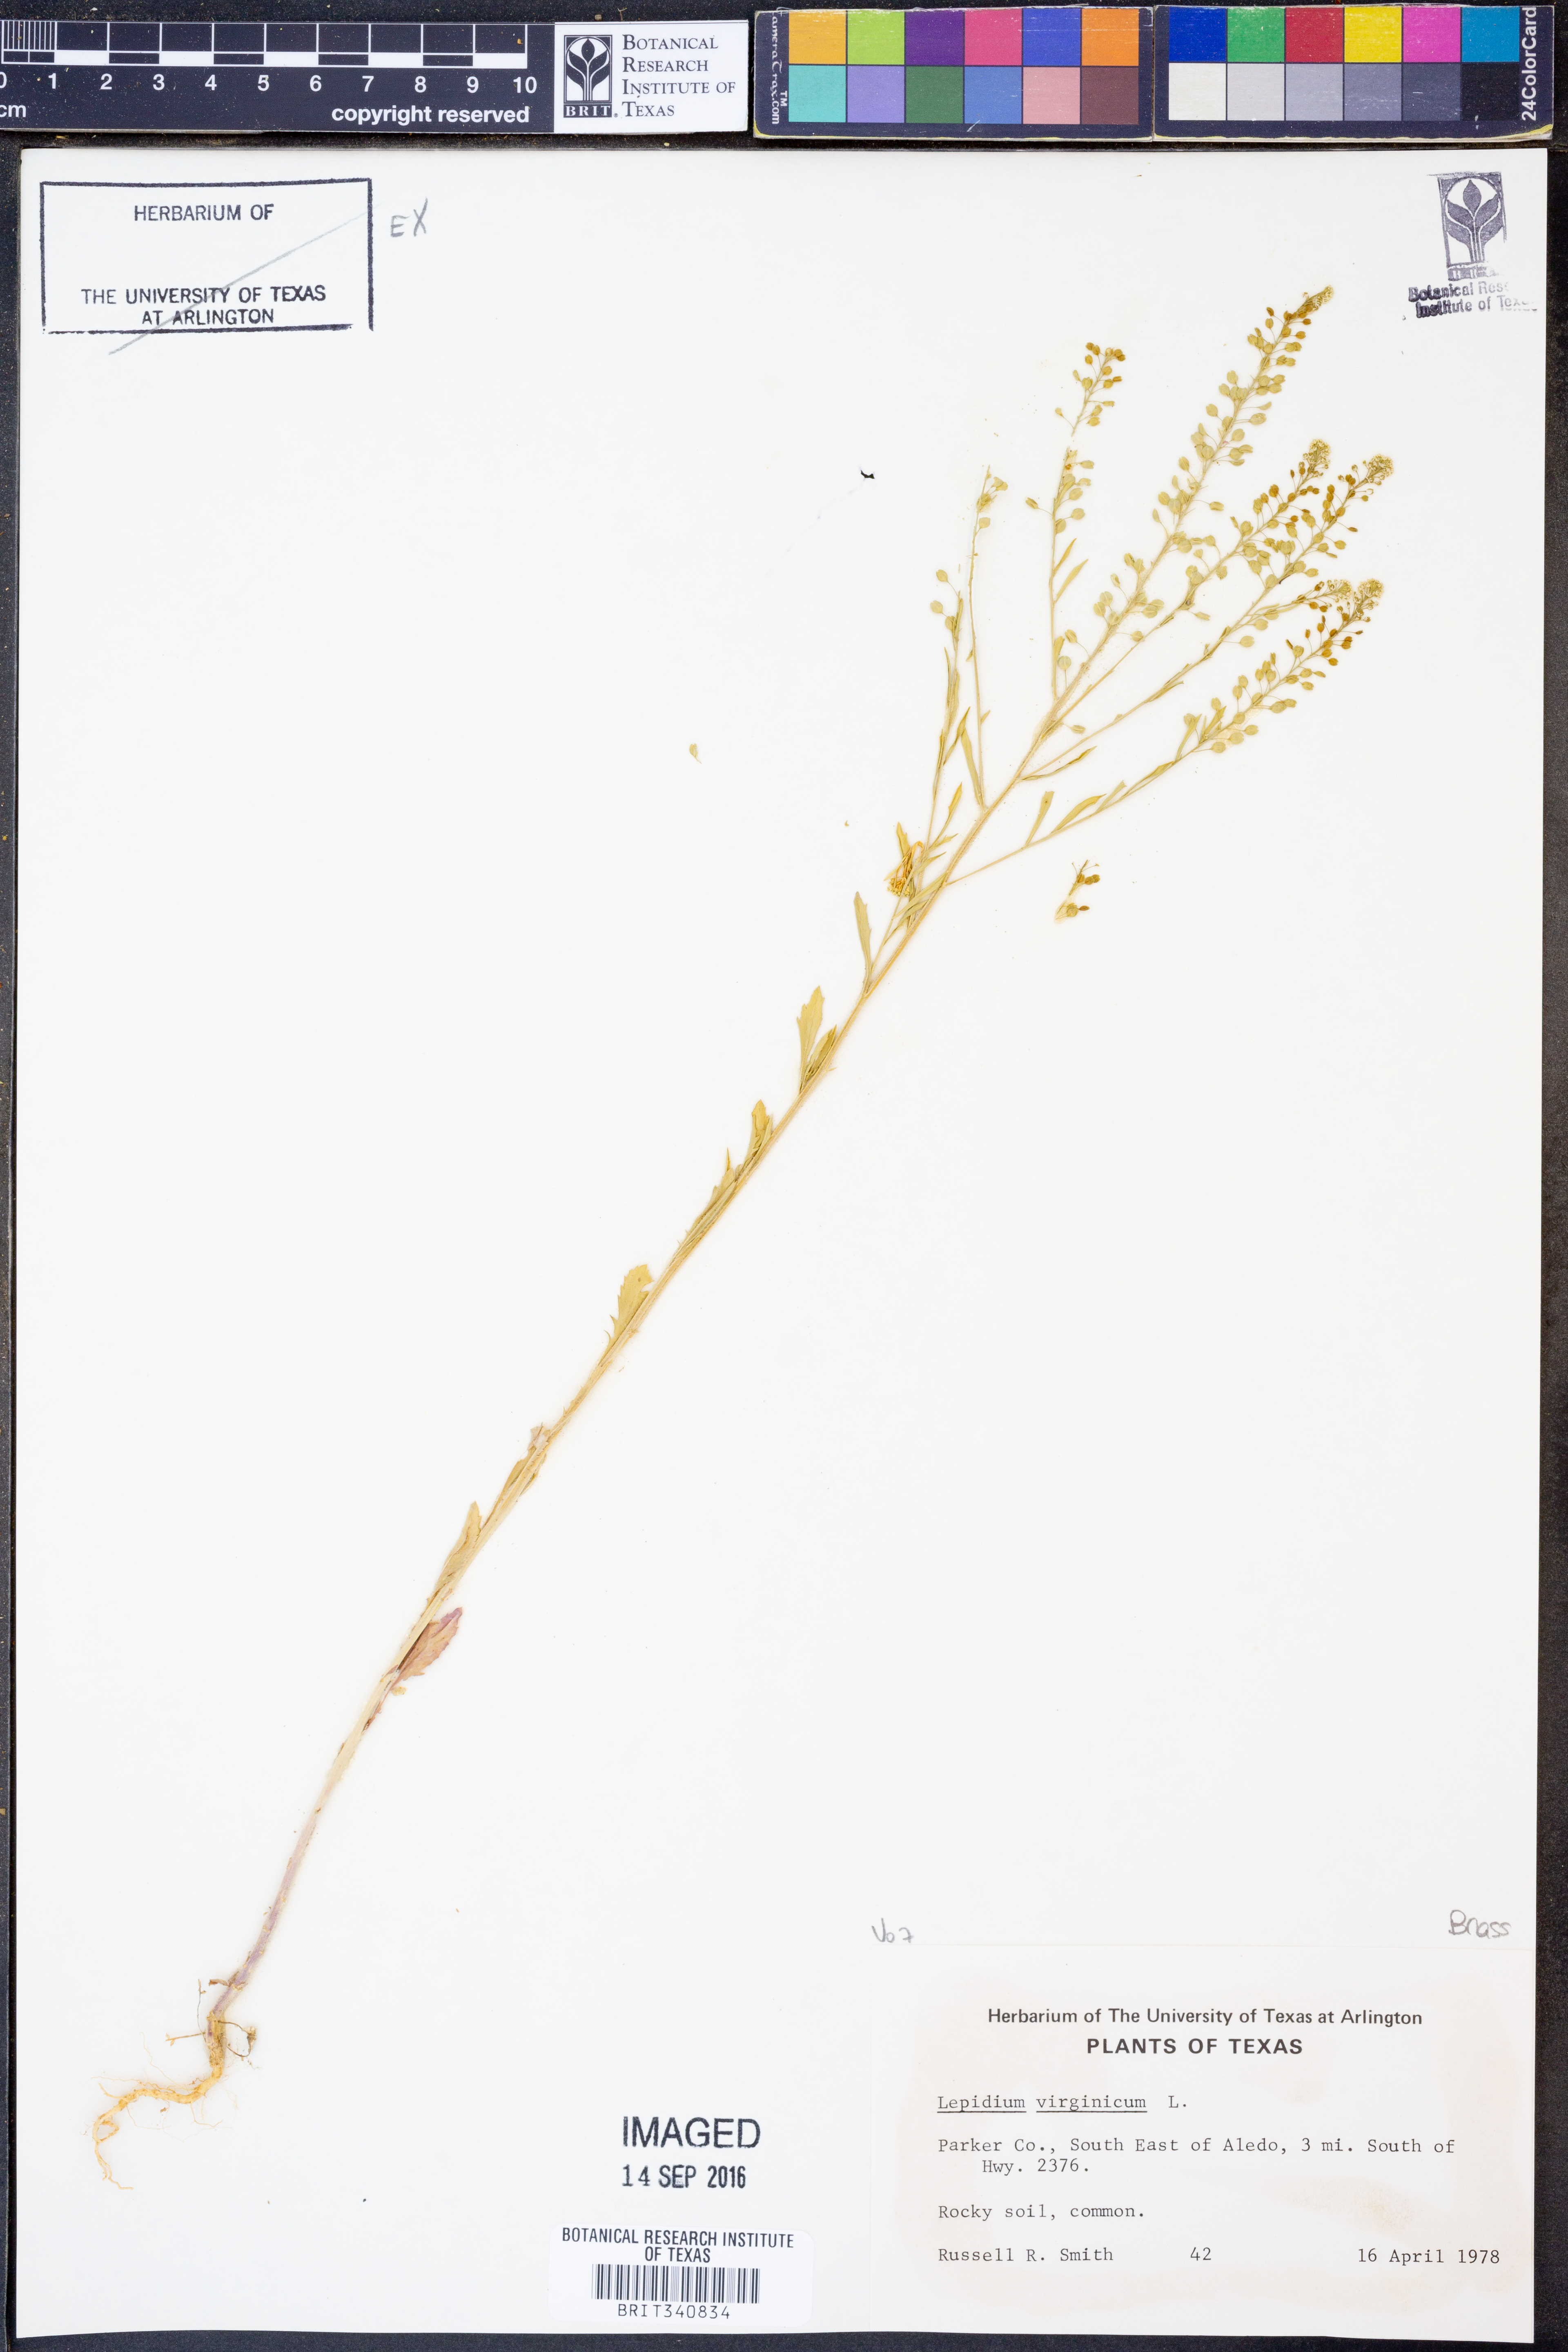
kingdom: Plantae
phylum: Tracheophyta
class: Magnoliopsida
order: Brassicales
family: Brassicaceae
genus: Lepidium
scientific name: Lepidium virginicum
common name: Least pepperwort
